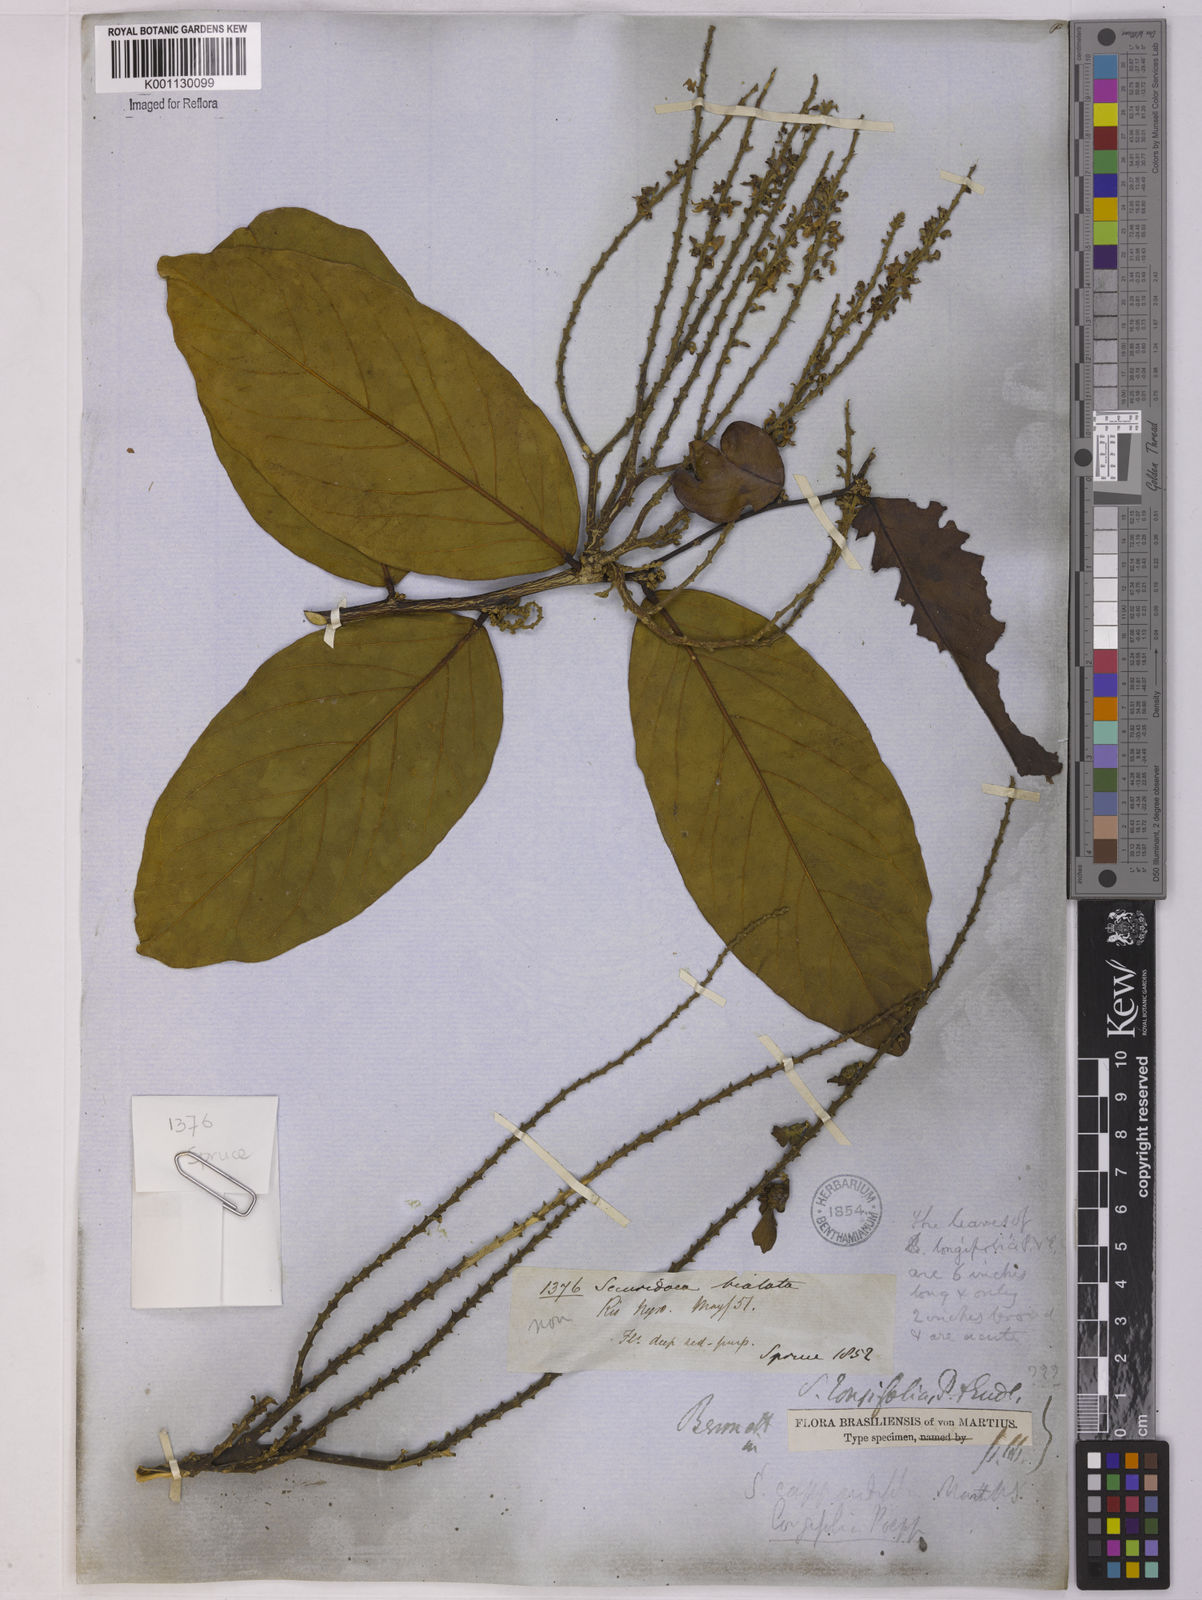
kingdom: Plantae
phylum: Tracheophyta
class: Magnoliopsida
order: Fabales
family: Polygalaceae
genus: Securidaca
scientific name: Securidaca bialata
